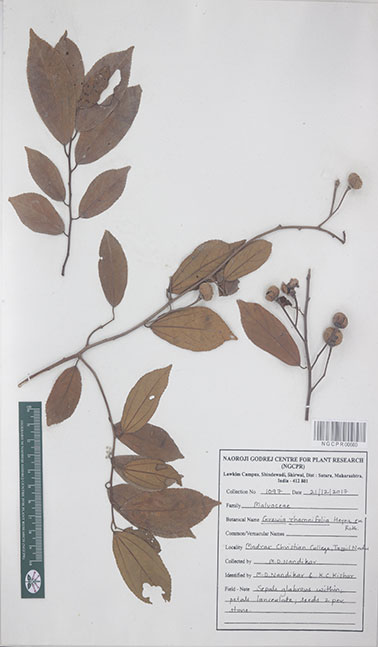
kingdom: Plantae
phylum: Tracheophyta
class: Magnoliopsida
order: Malvales
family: Malvaceae
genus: Grewia
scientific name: Grewia rhamnifolia
